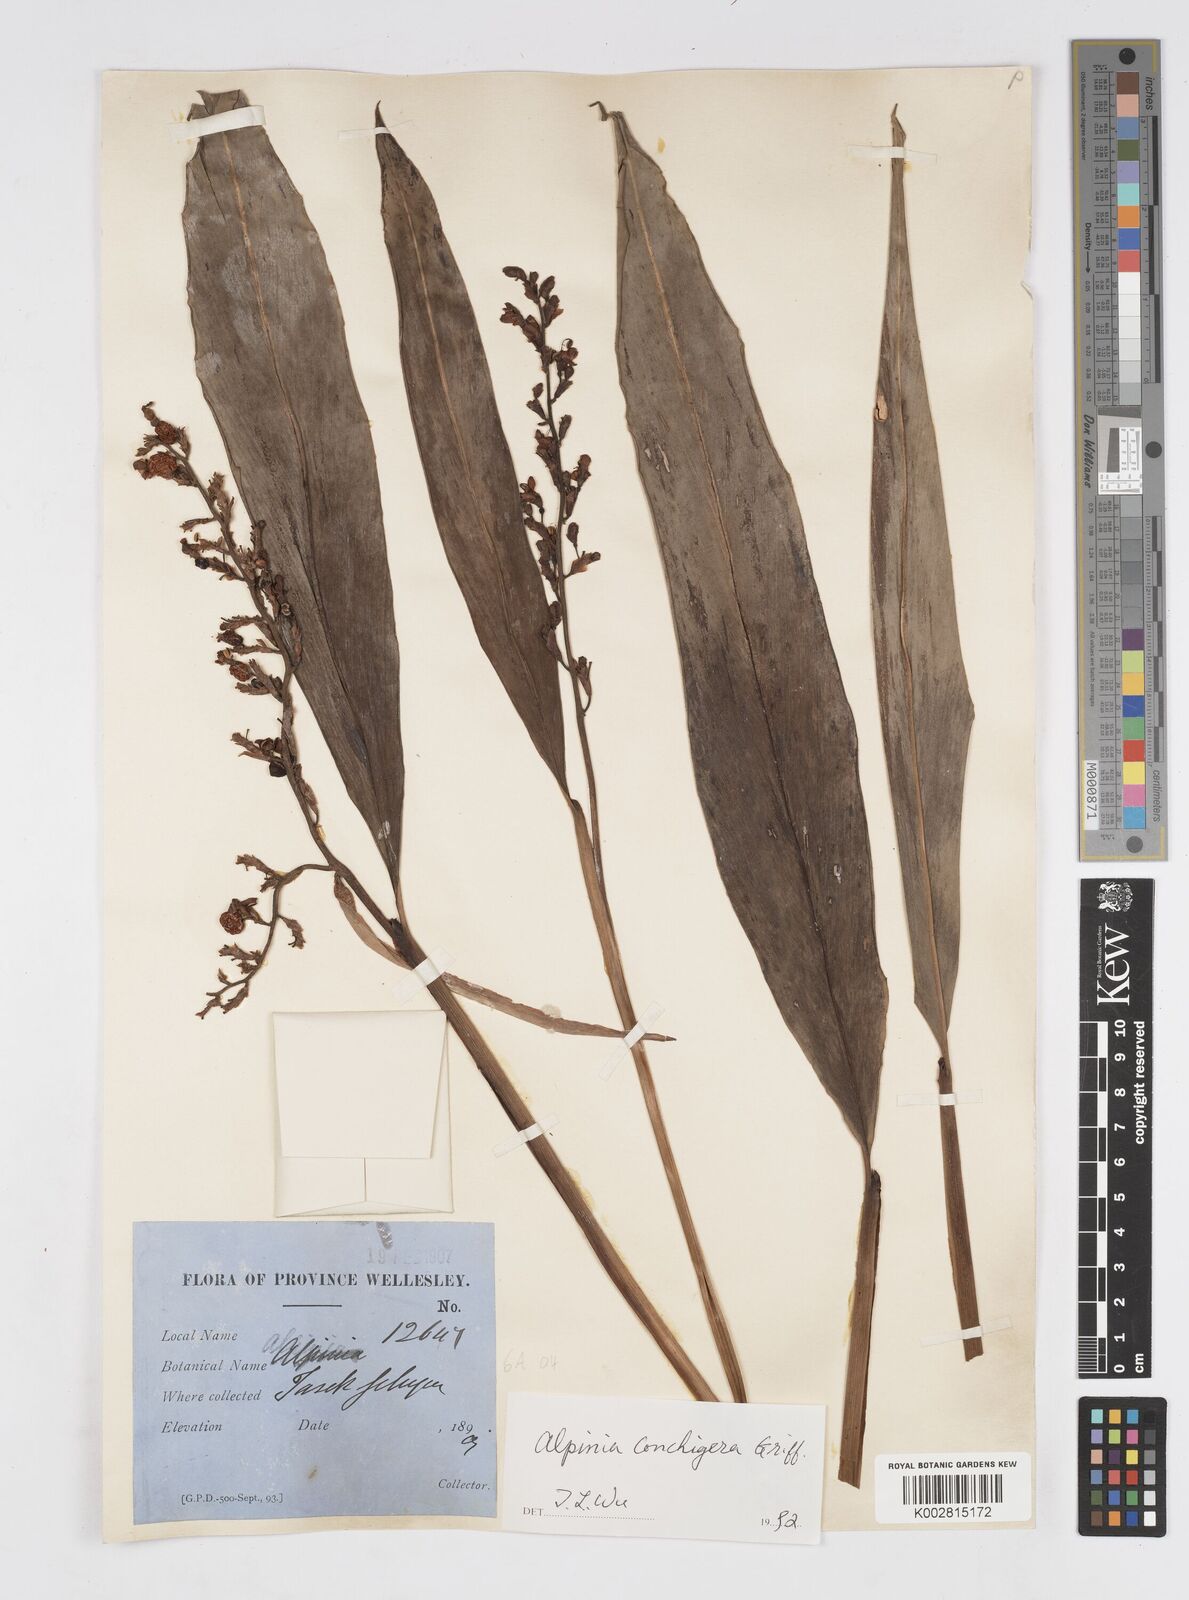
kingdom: Plantae
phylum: Tracheophyta
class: Liliopsida
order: Zingiberales
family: Zingiberaceae
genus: Alpinia
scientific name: Alpinia conchigera
